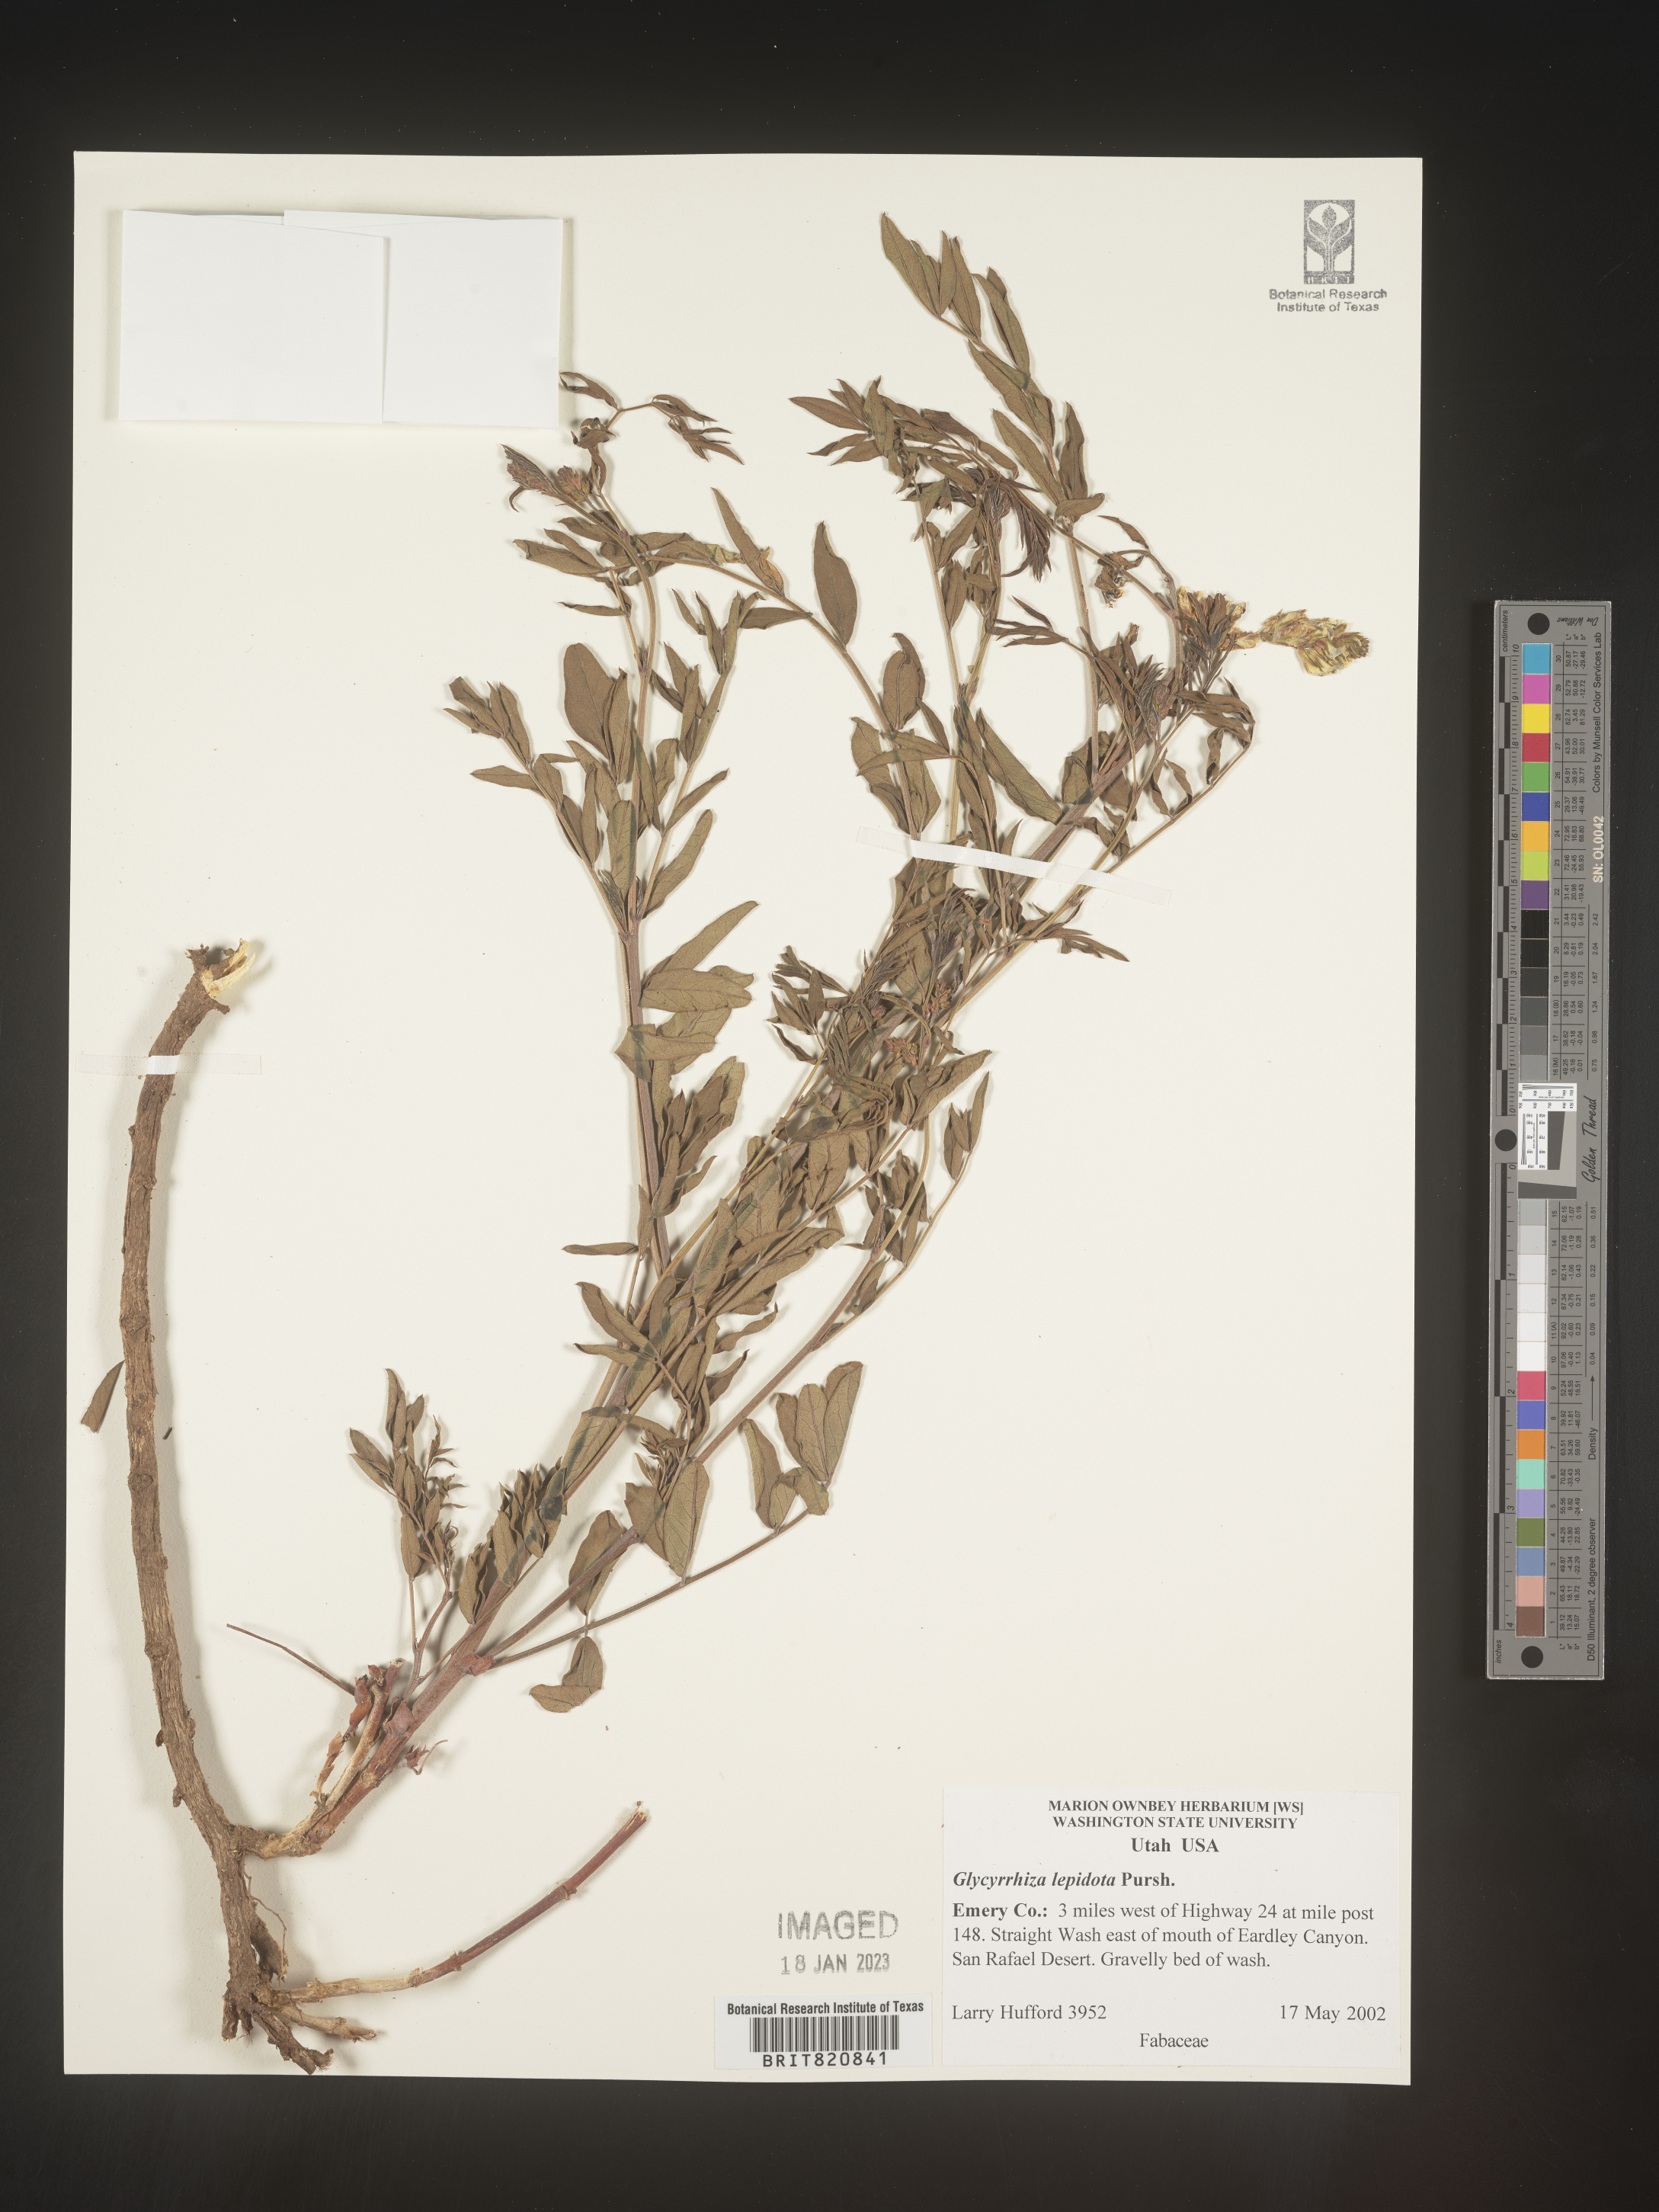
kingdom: Plantae
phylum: Tracheophyta
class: Magnoliopsida
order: Fabales
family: Fabaceae
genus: Glycyrrhiza
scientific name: Glycyrrhiza lepidota
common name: American liquorice
